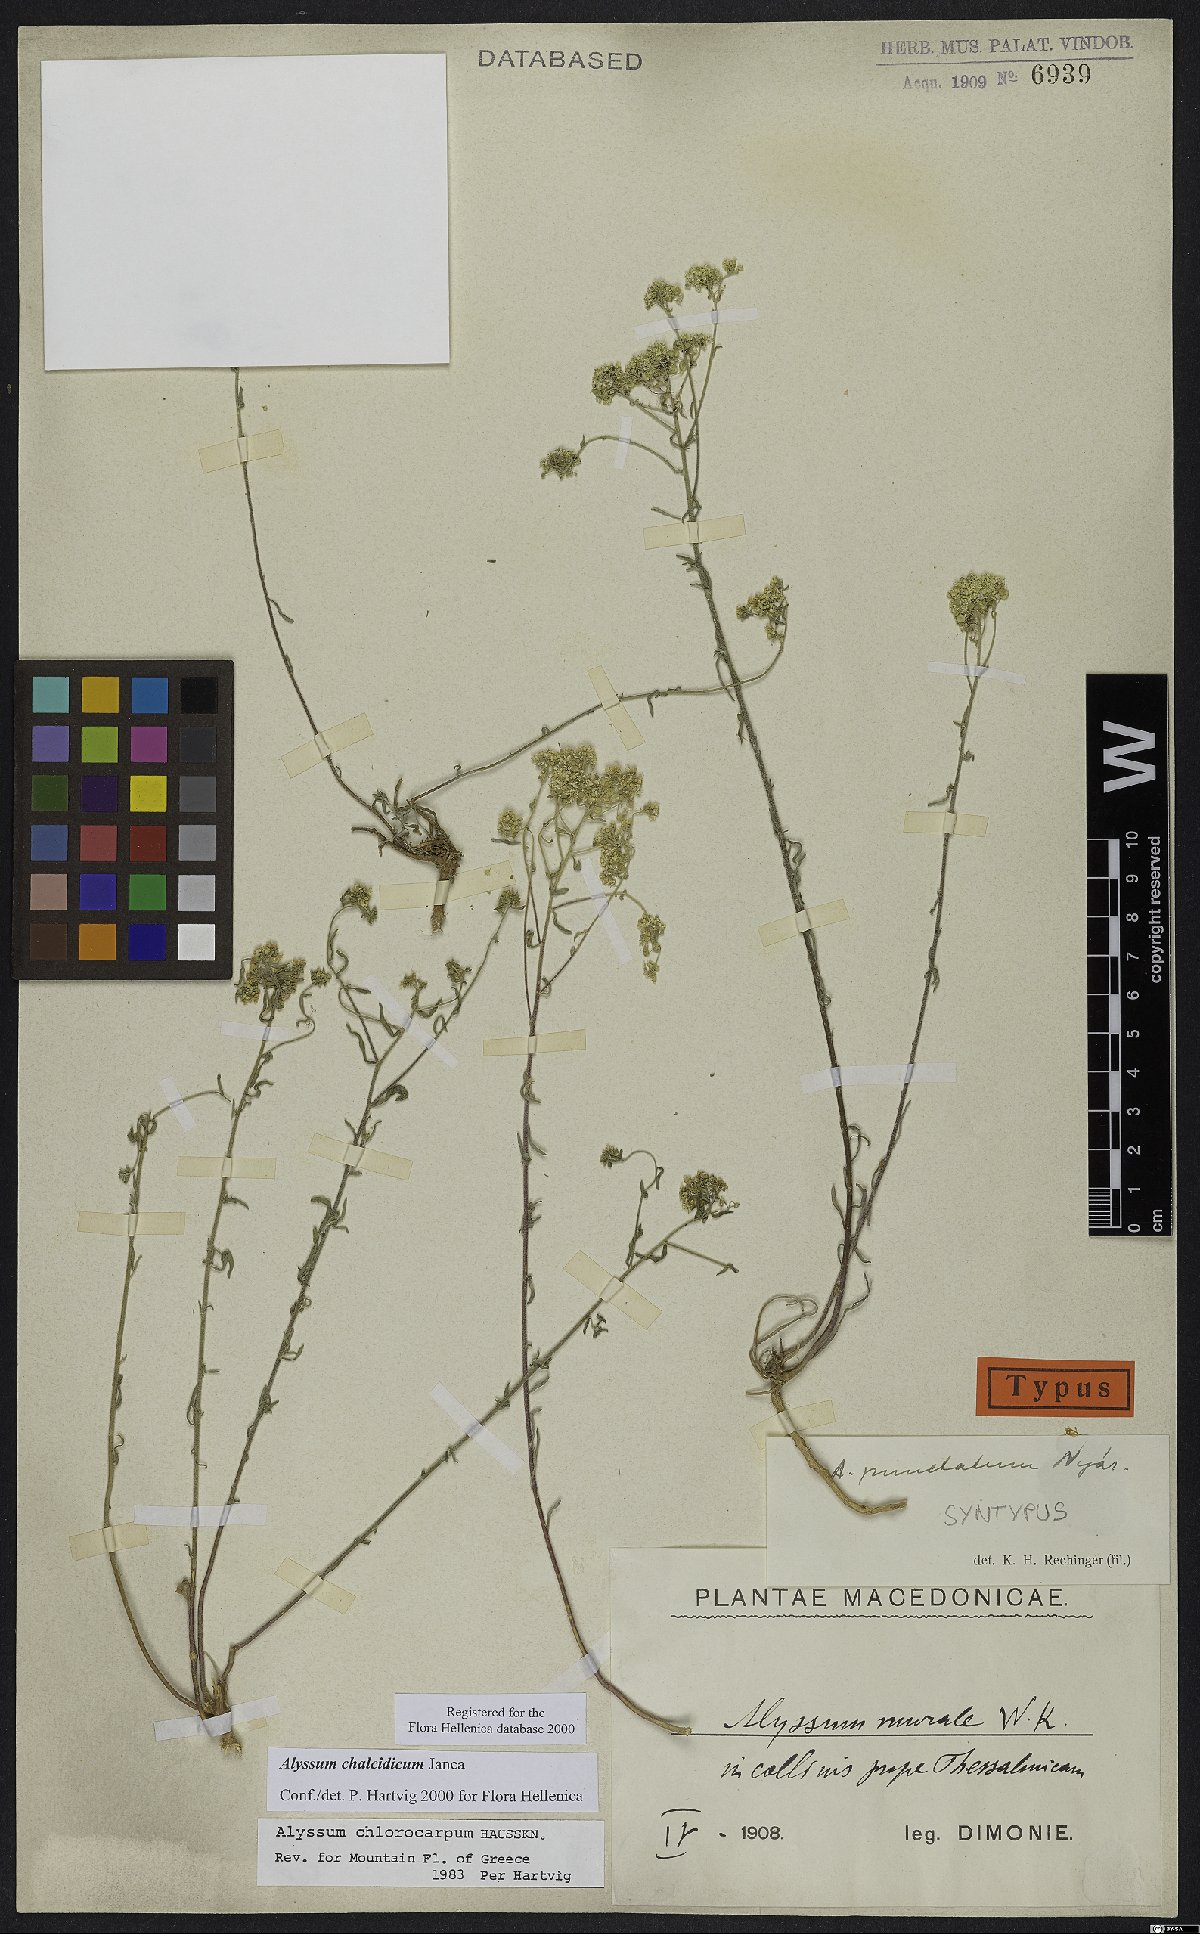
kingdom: Plantae
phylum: Tracheophyta
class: Magnoliopsida
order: Brassicales
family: Brassicaceae
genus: Odontarrhena
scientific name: Odontarrhena chalcidica
